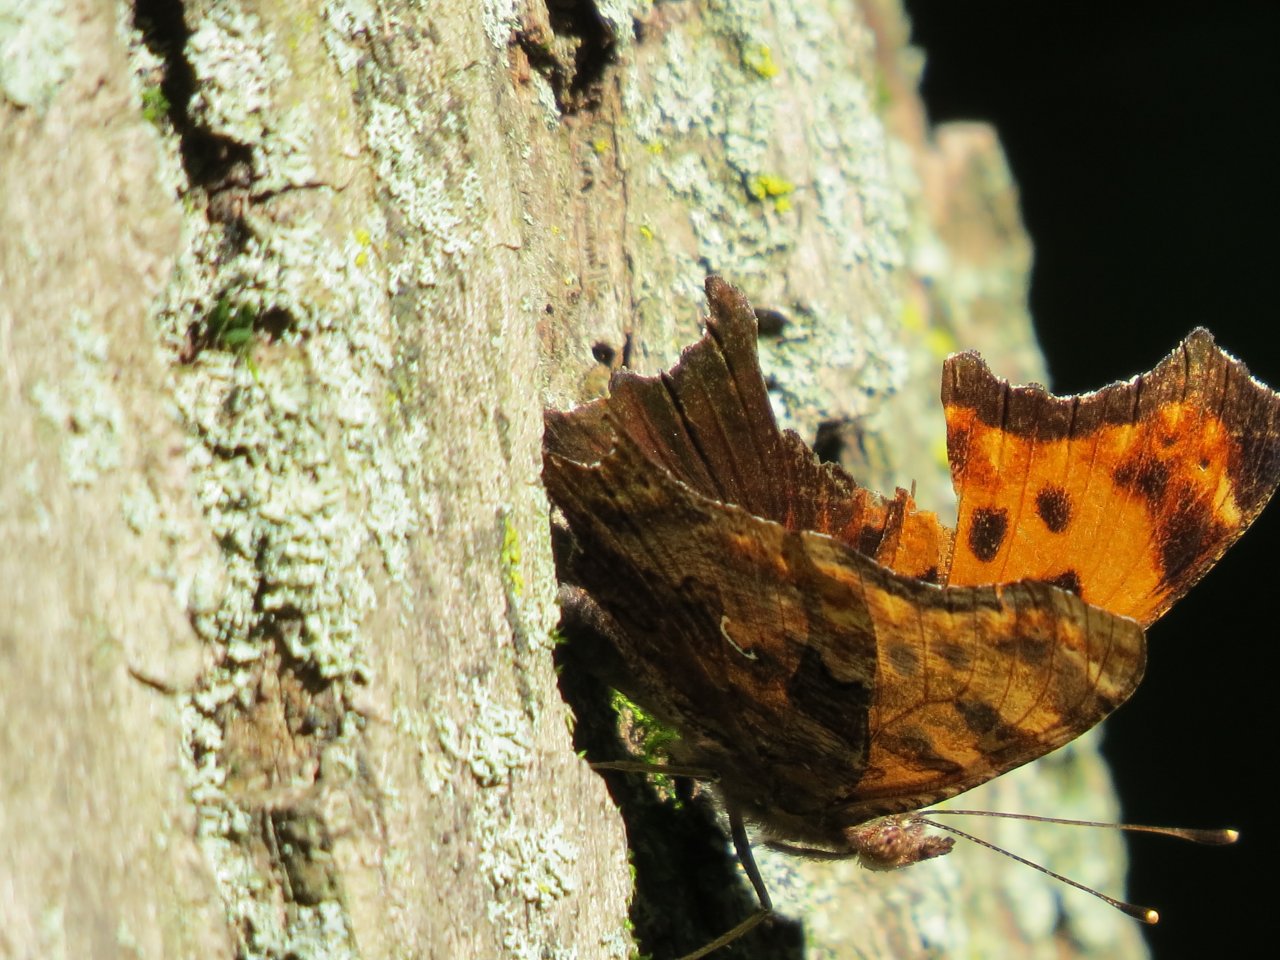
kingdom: Animalia
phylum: Arthropoda
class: Insecta
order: Lepidoptera
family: Nymphalidae
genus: Polygonia
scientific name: Polygonia comma
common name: Eastern Comma
